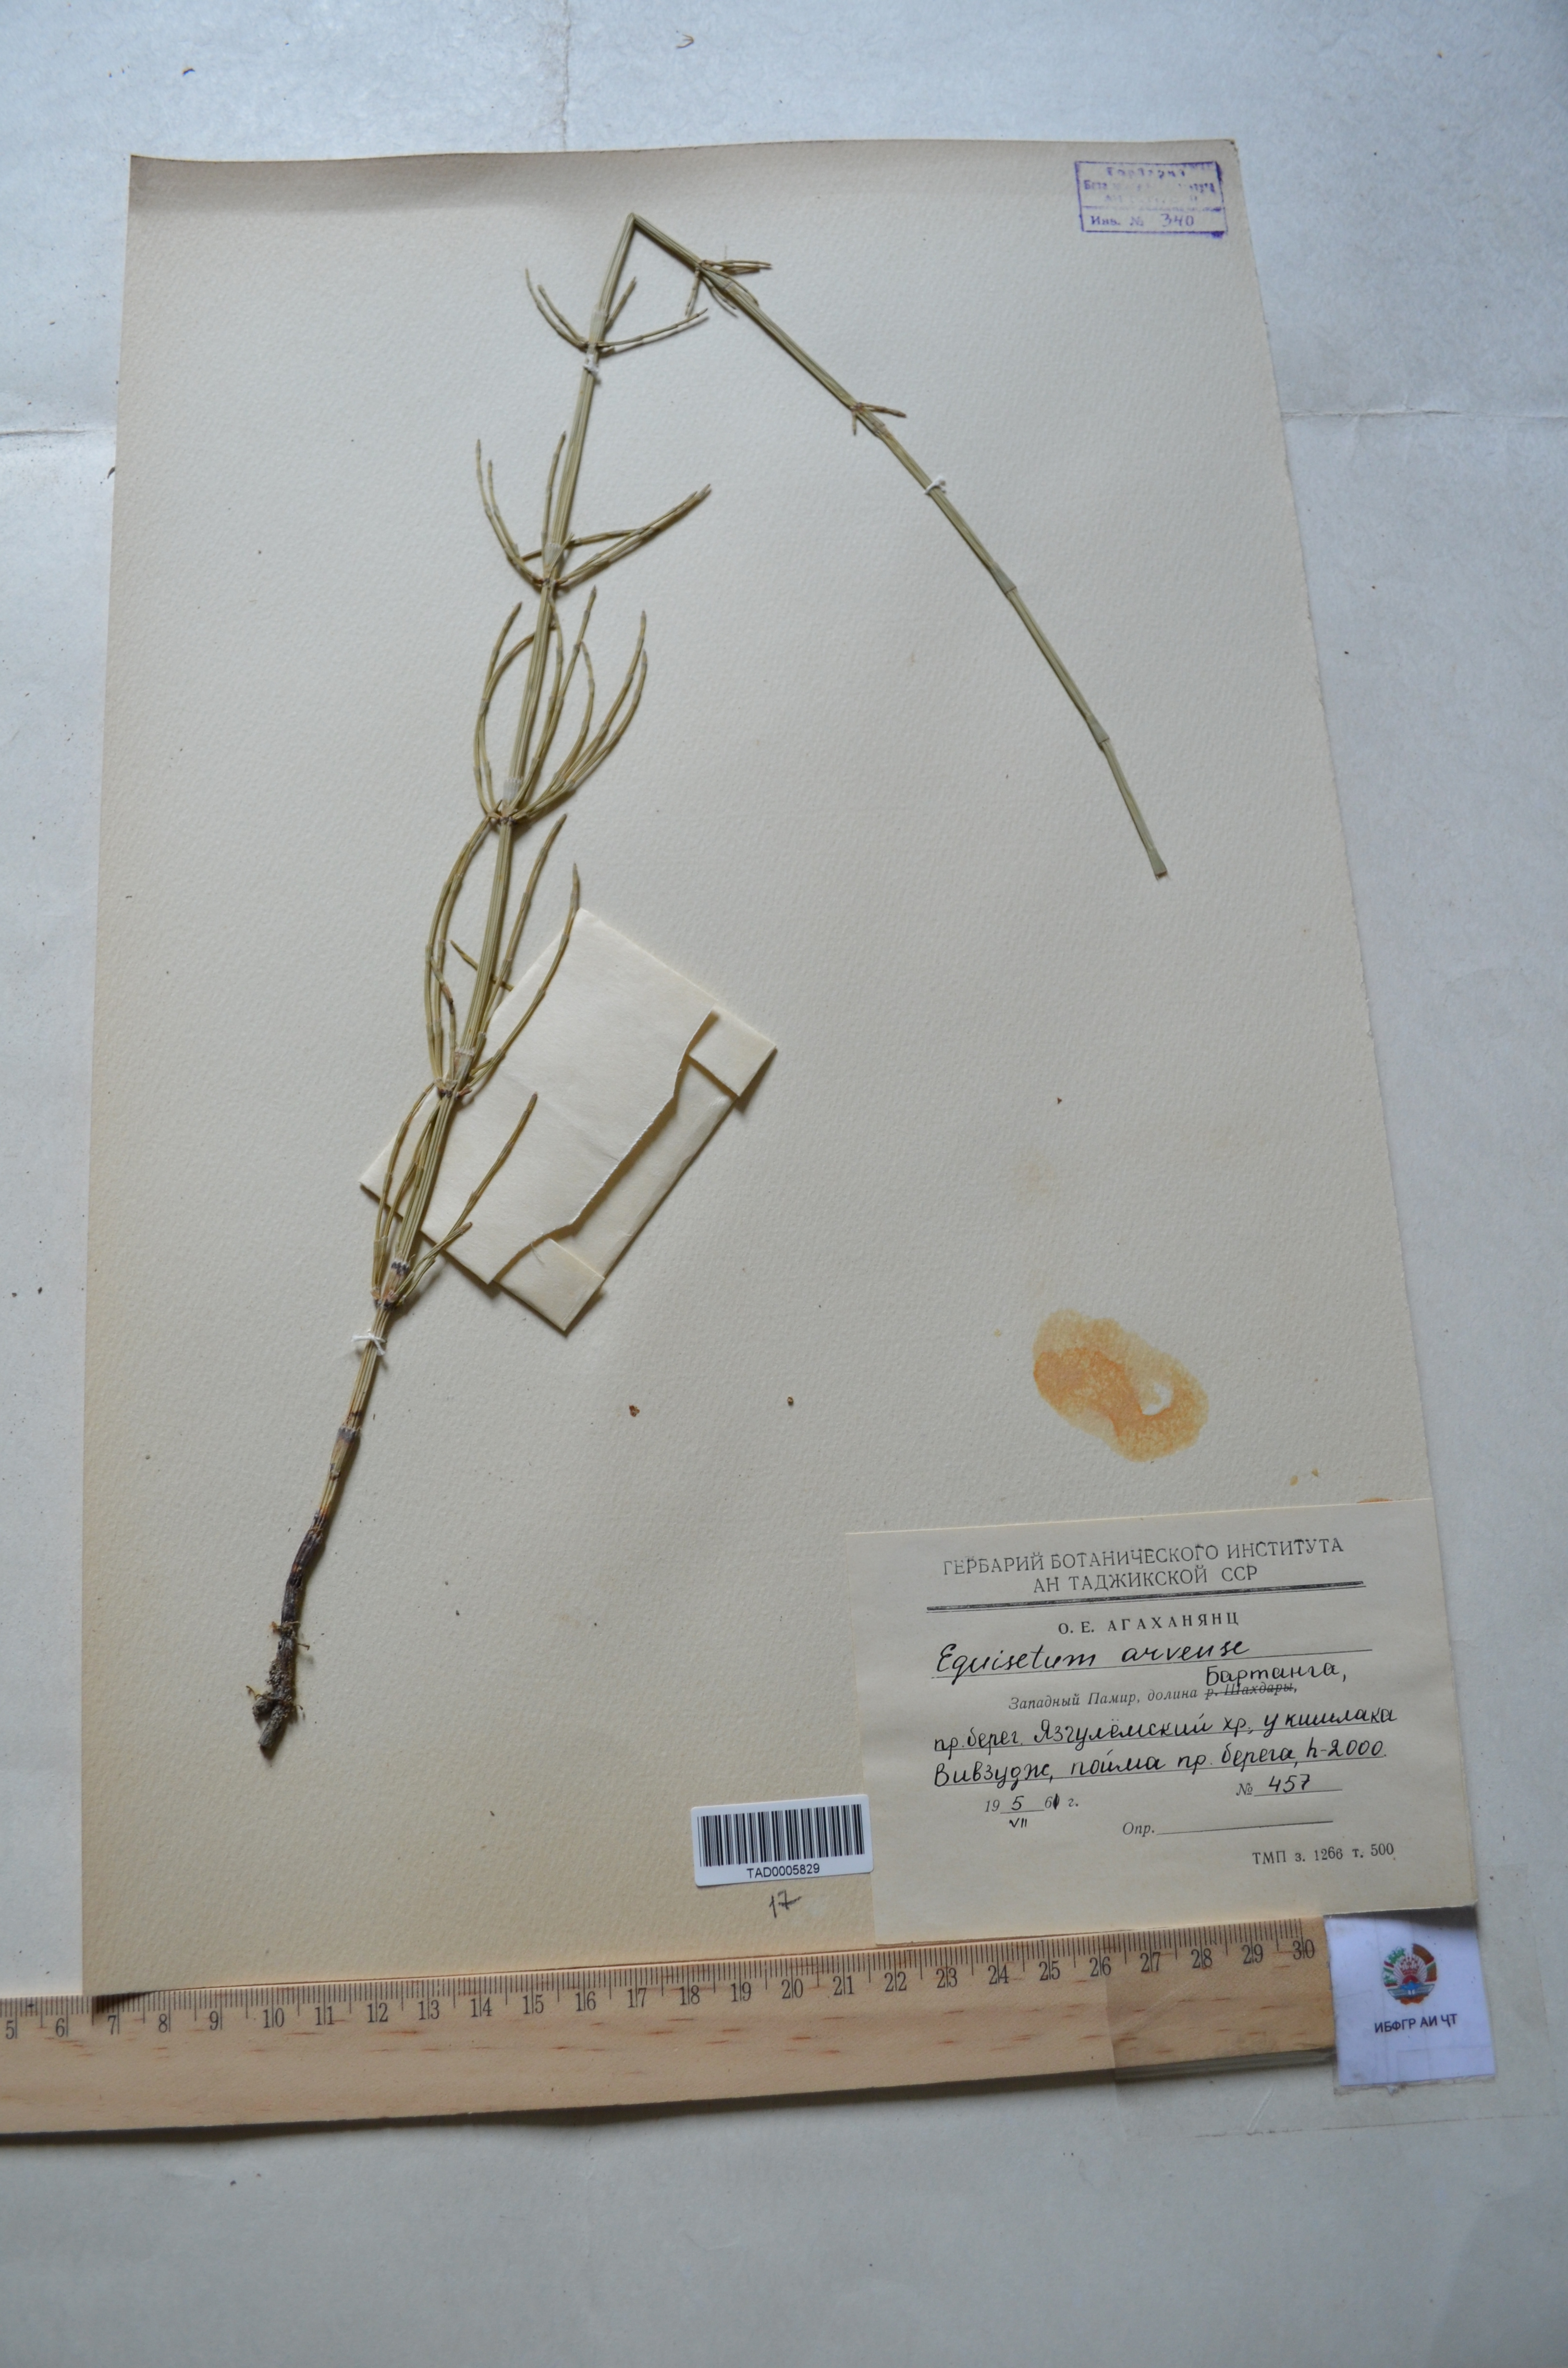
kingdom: Plantae
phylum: Tracheophyta
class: Polypodiopsida
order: Equisetales
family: Equisetaceae
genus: Equisetum
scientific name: Equisetum arvense
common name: Field horsetail
